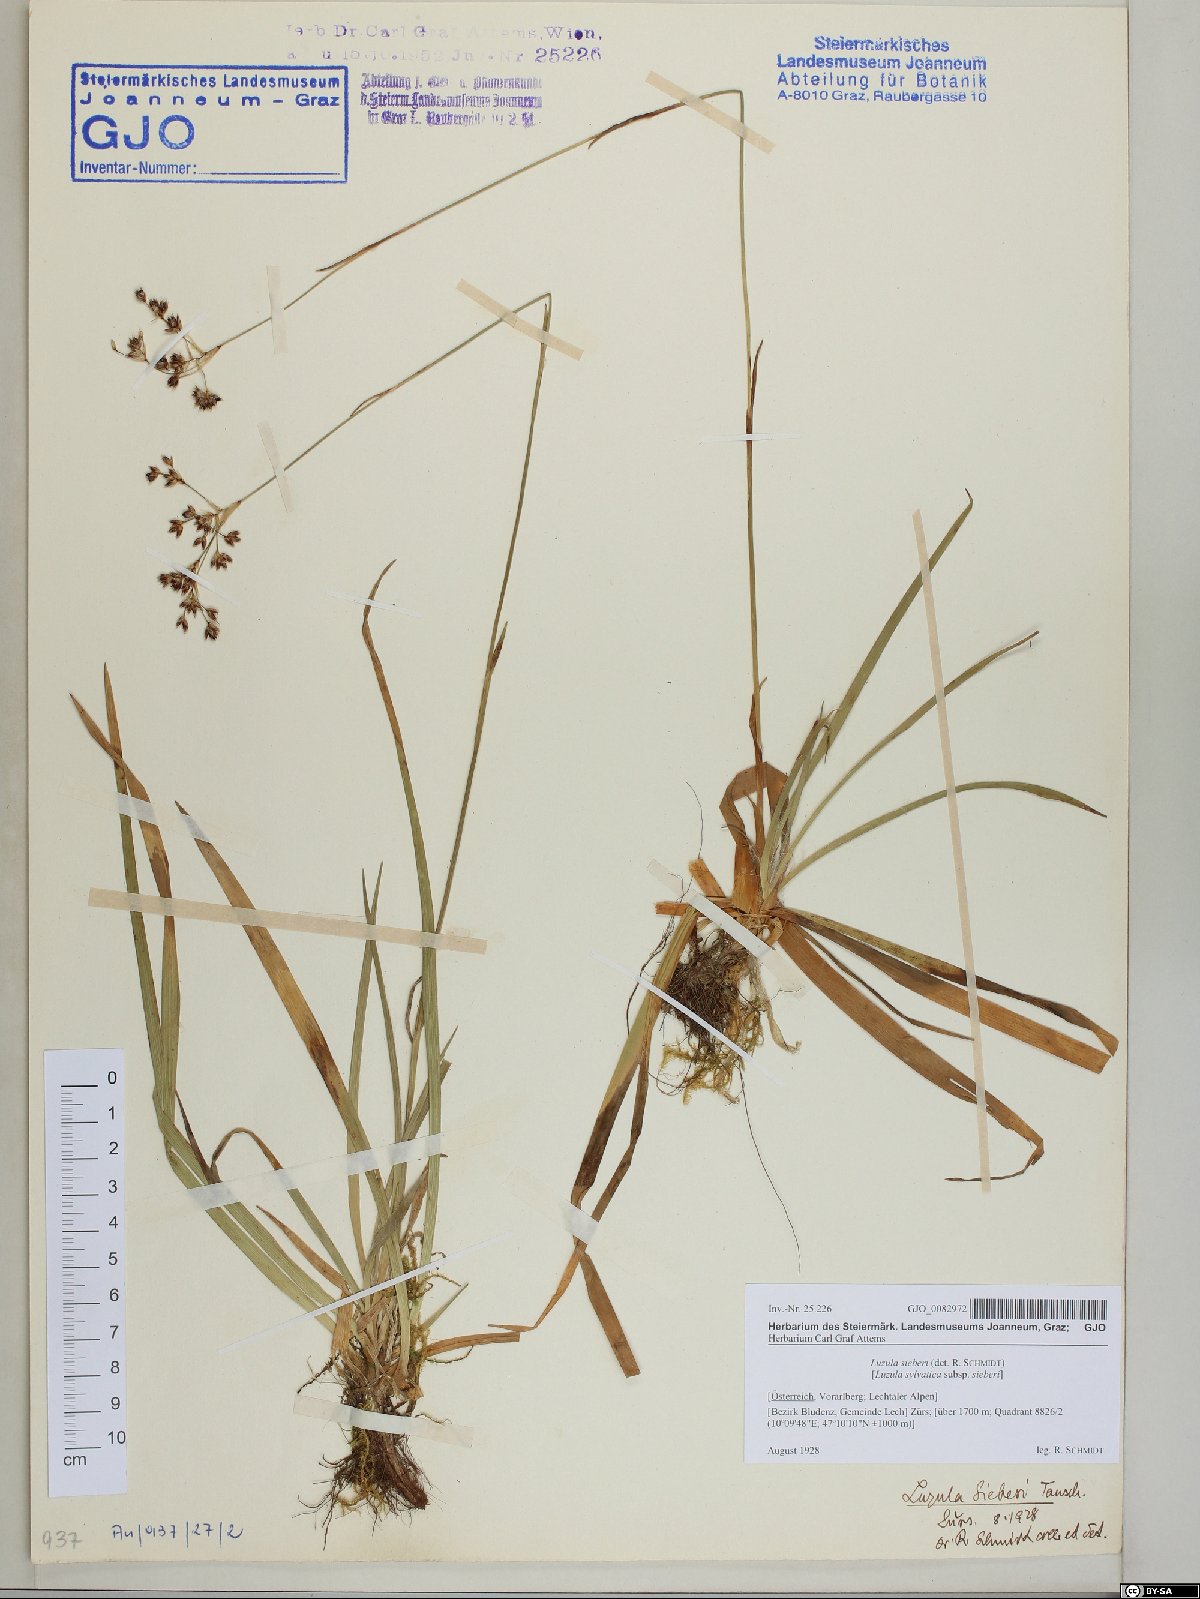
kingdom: Plantae
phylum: Tracheophyta
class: Liliopsida
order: Poales
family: Juncaceae
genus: Luzula
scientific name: Luzula sylvatica
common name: Great wood-rush
